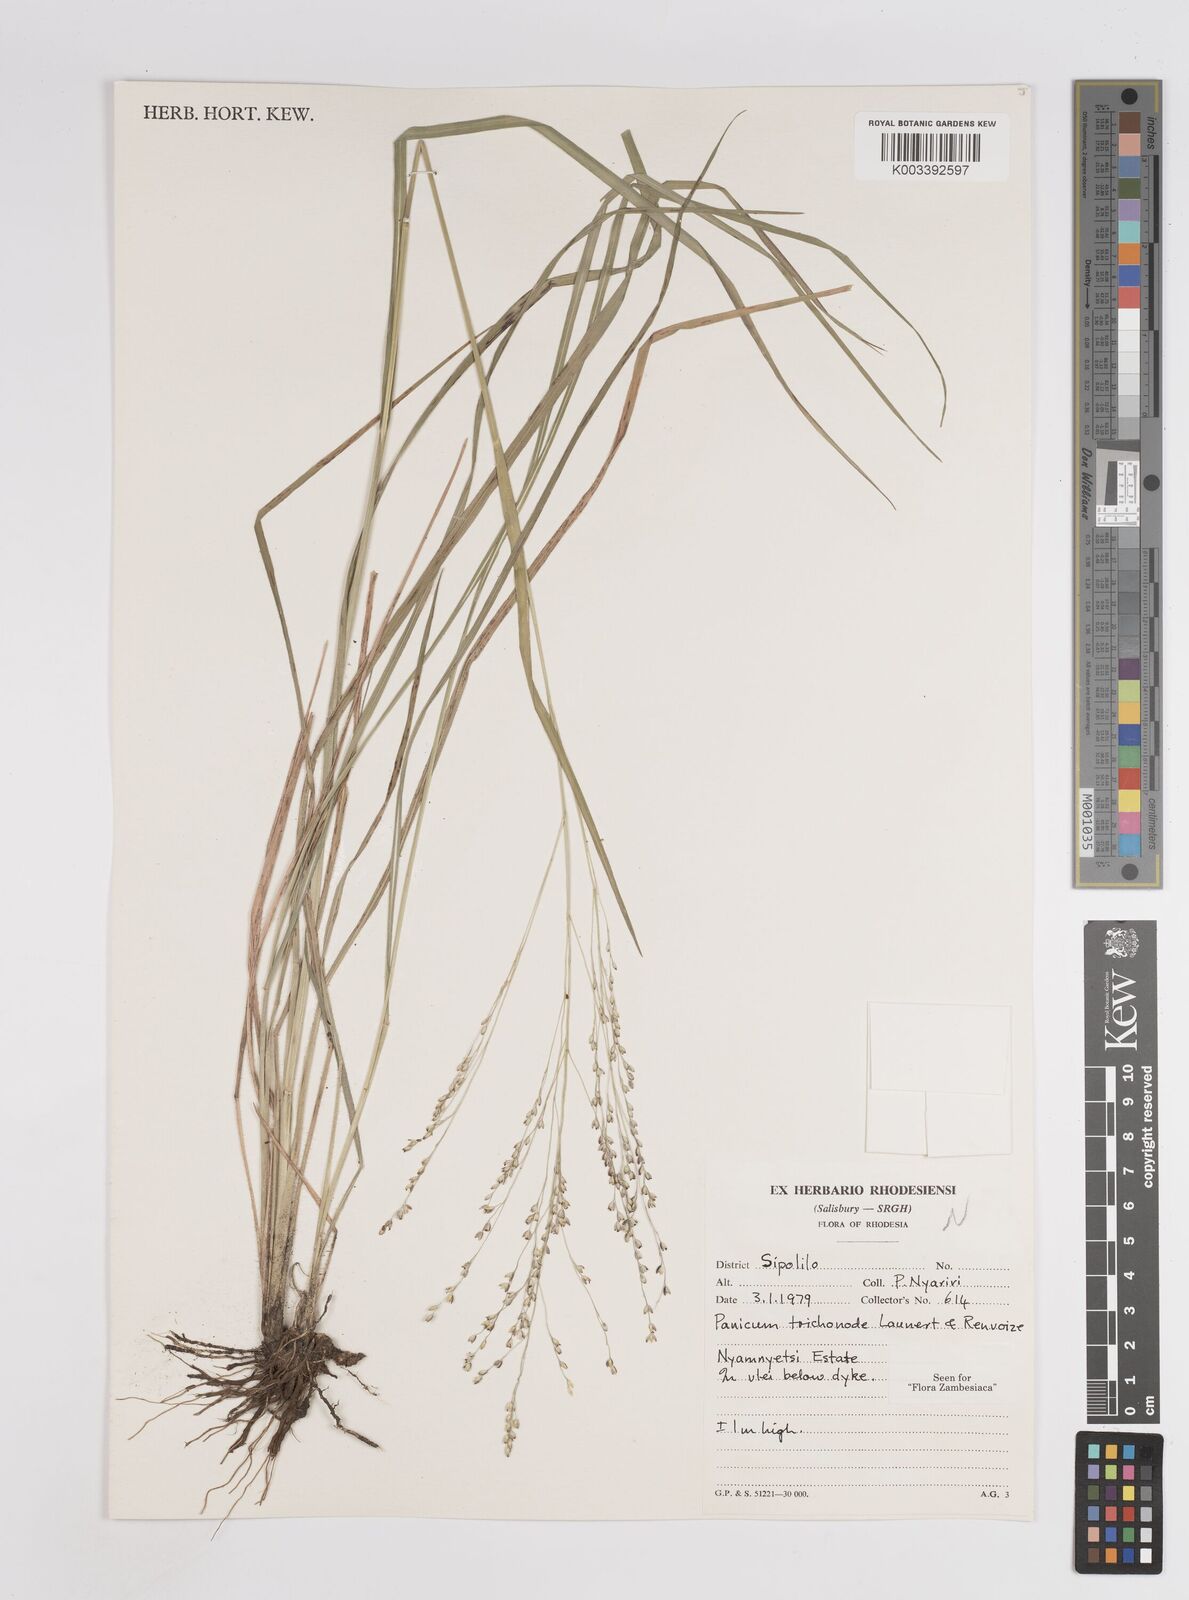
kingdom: Plantae
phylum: Tracheophyta
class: Liliopsida
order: Poales
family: Poaceae
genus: Panicum
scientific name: Panicum trichonode
